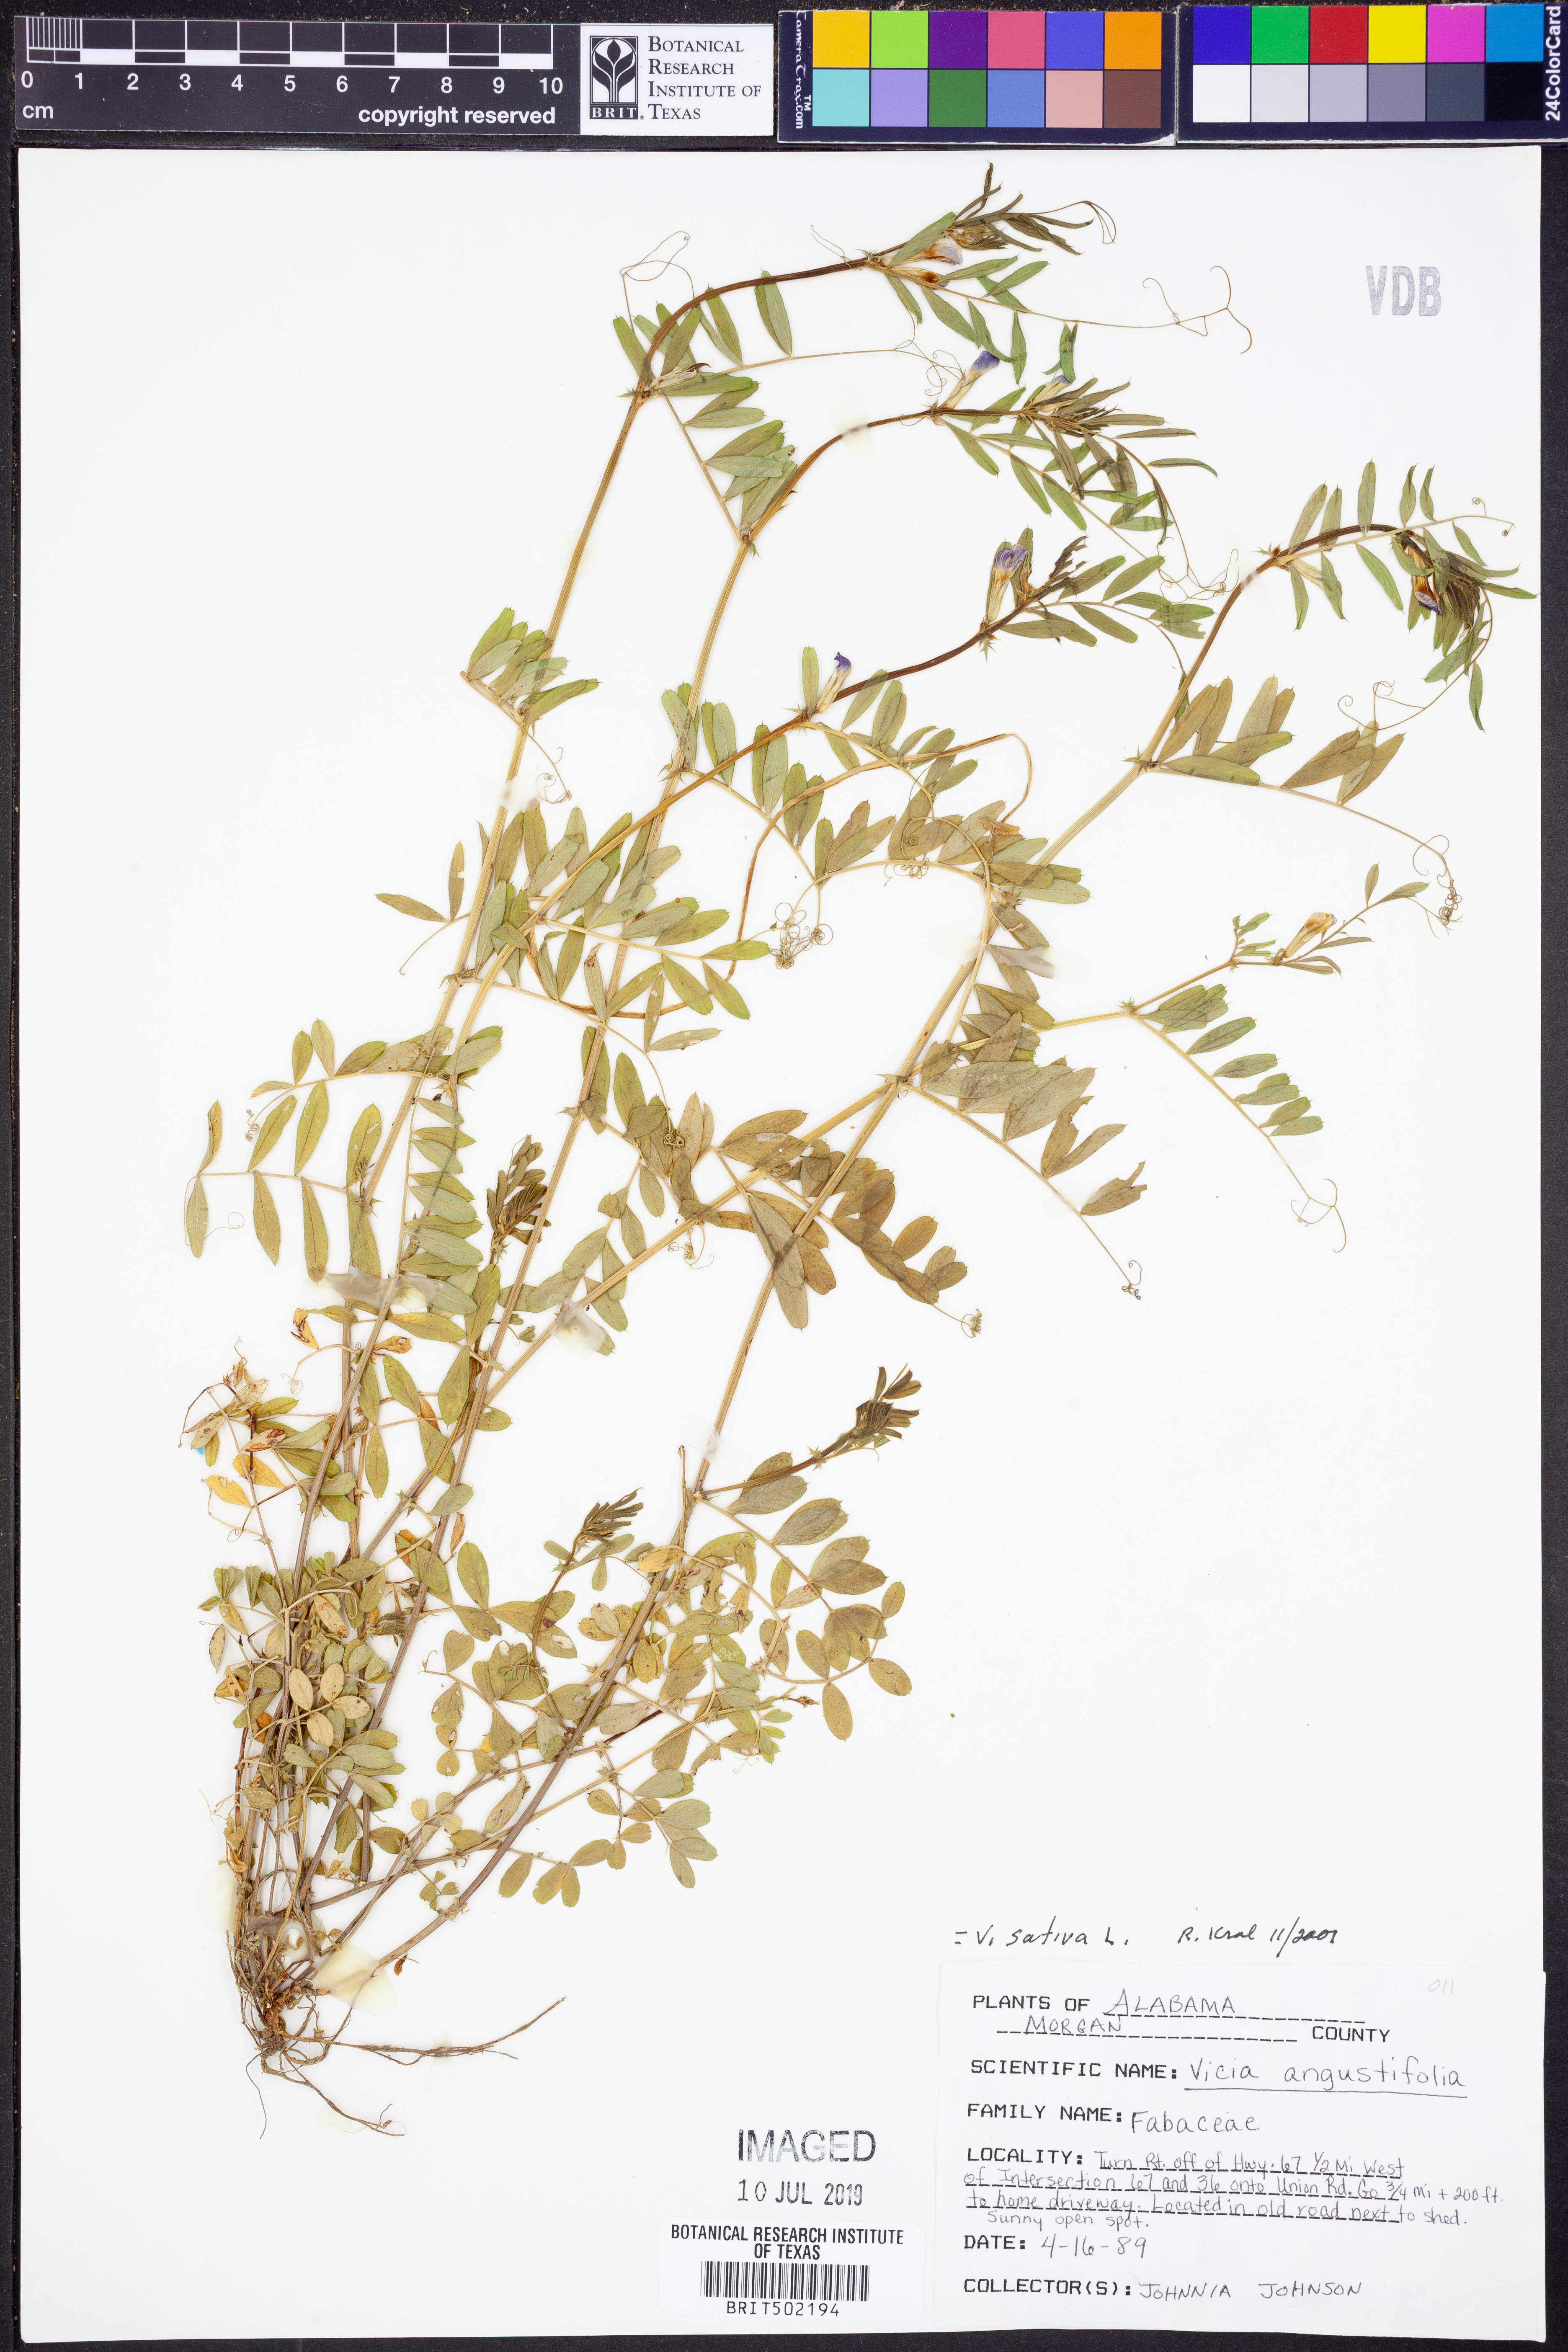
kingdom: Plantae
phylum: Tracheophyta
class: Magnoliopsida
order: Fabales
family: Fabaceae
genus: Vicia
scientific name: Vicia sativa
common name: Garden vetch
